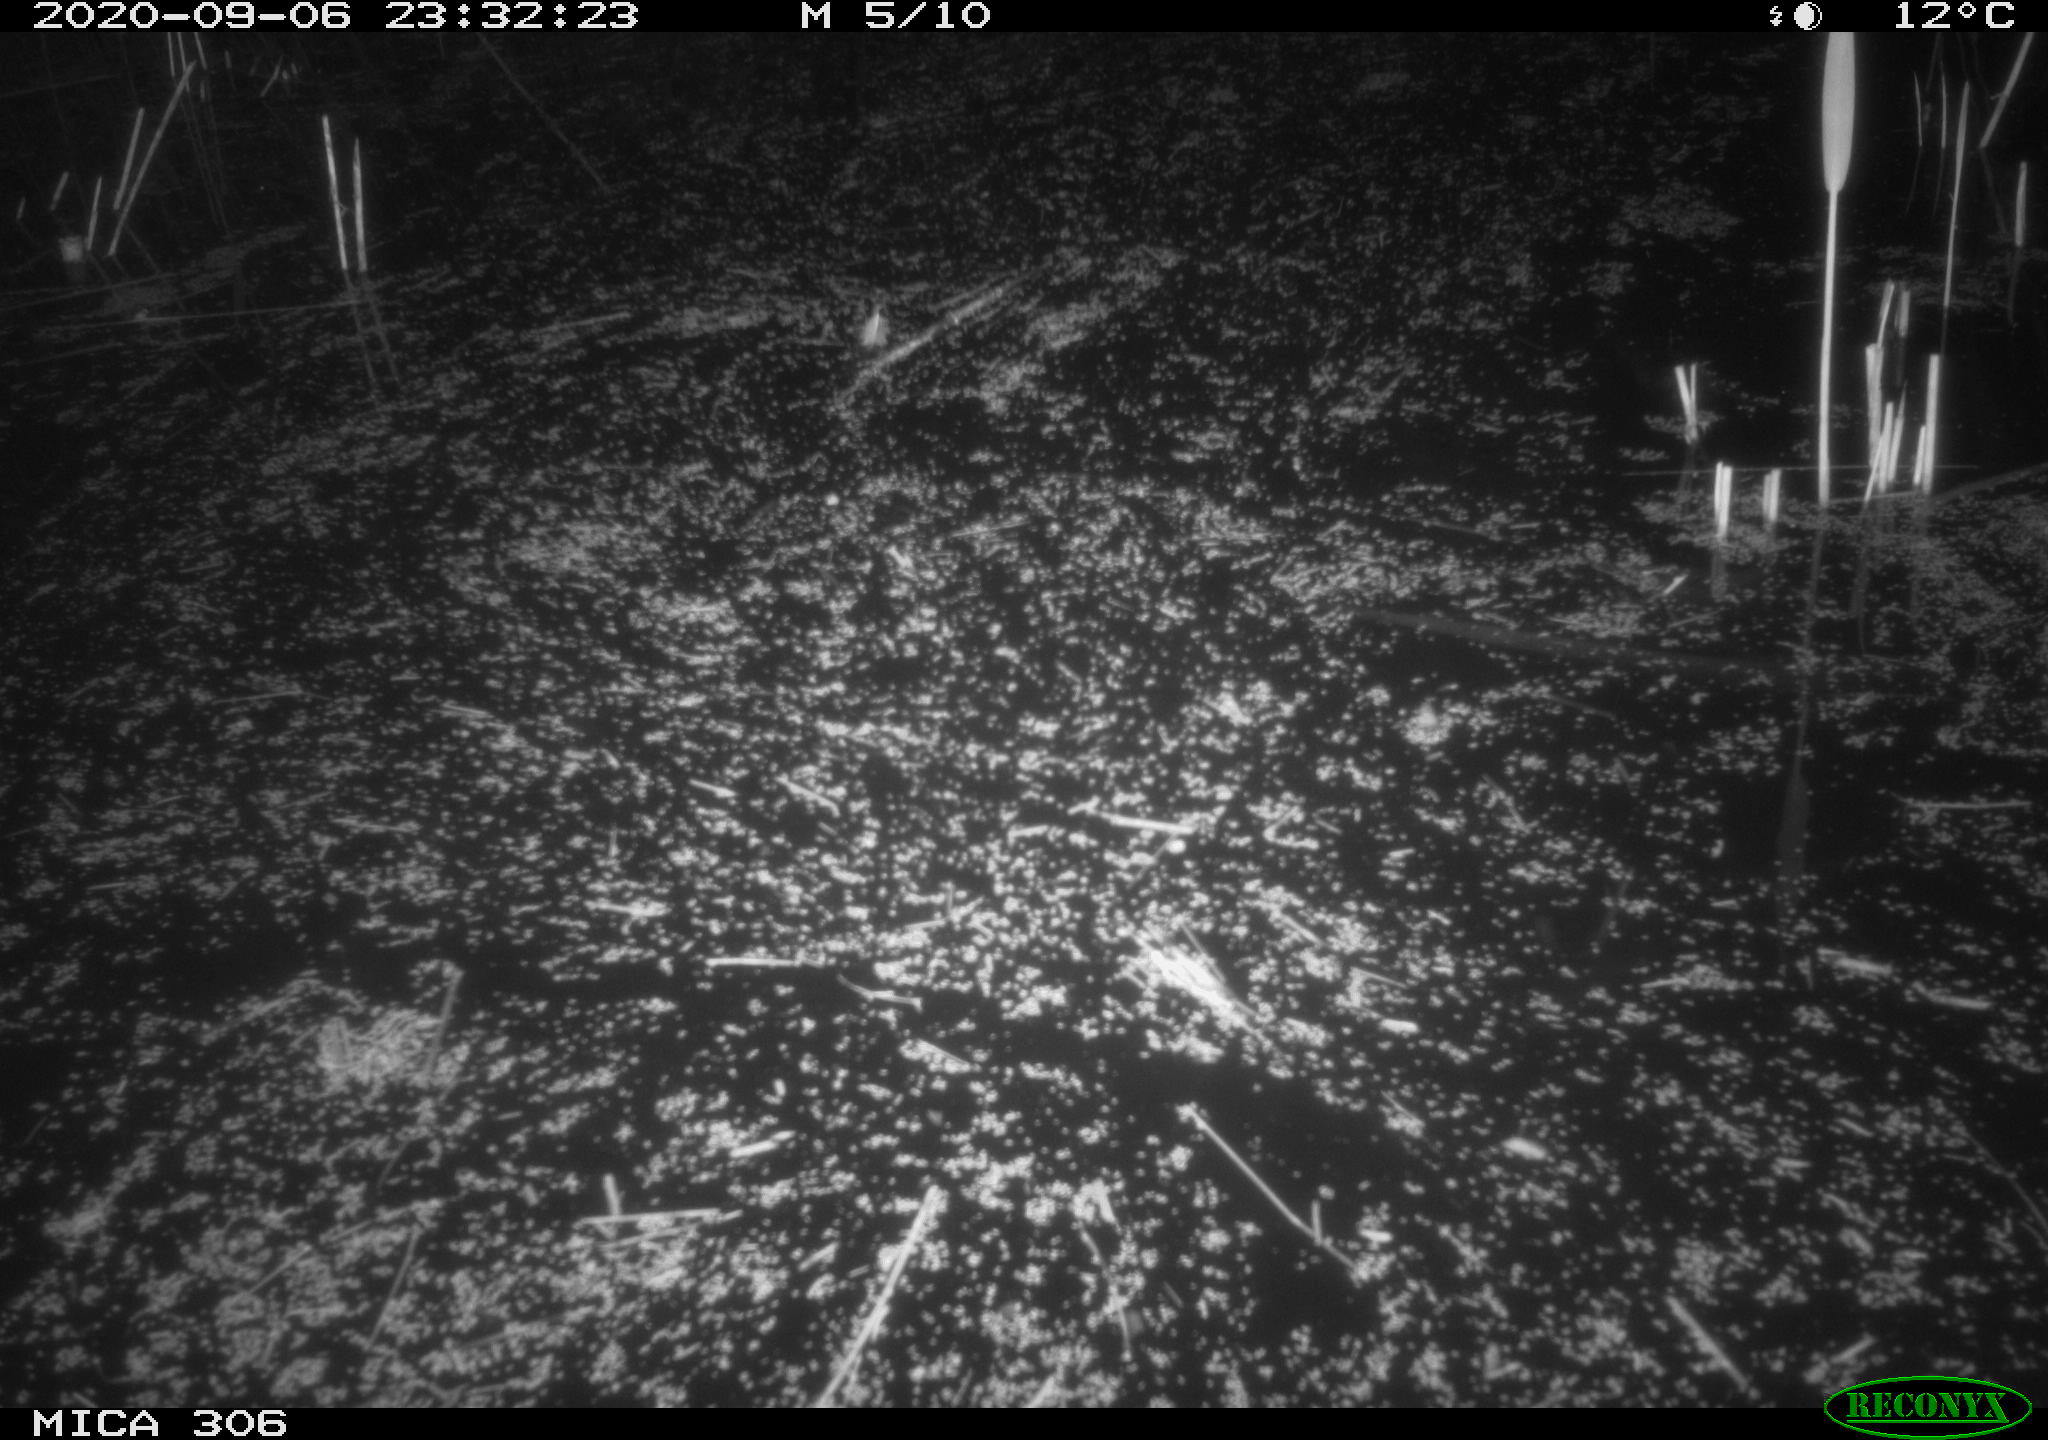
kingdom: Animalia
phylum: Chordata
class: Mammalia
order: Rodentia
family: Muridae
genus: Rattus
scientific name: Rattus norvegicus
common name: Brown rat
